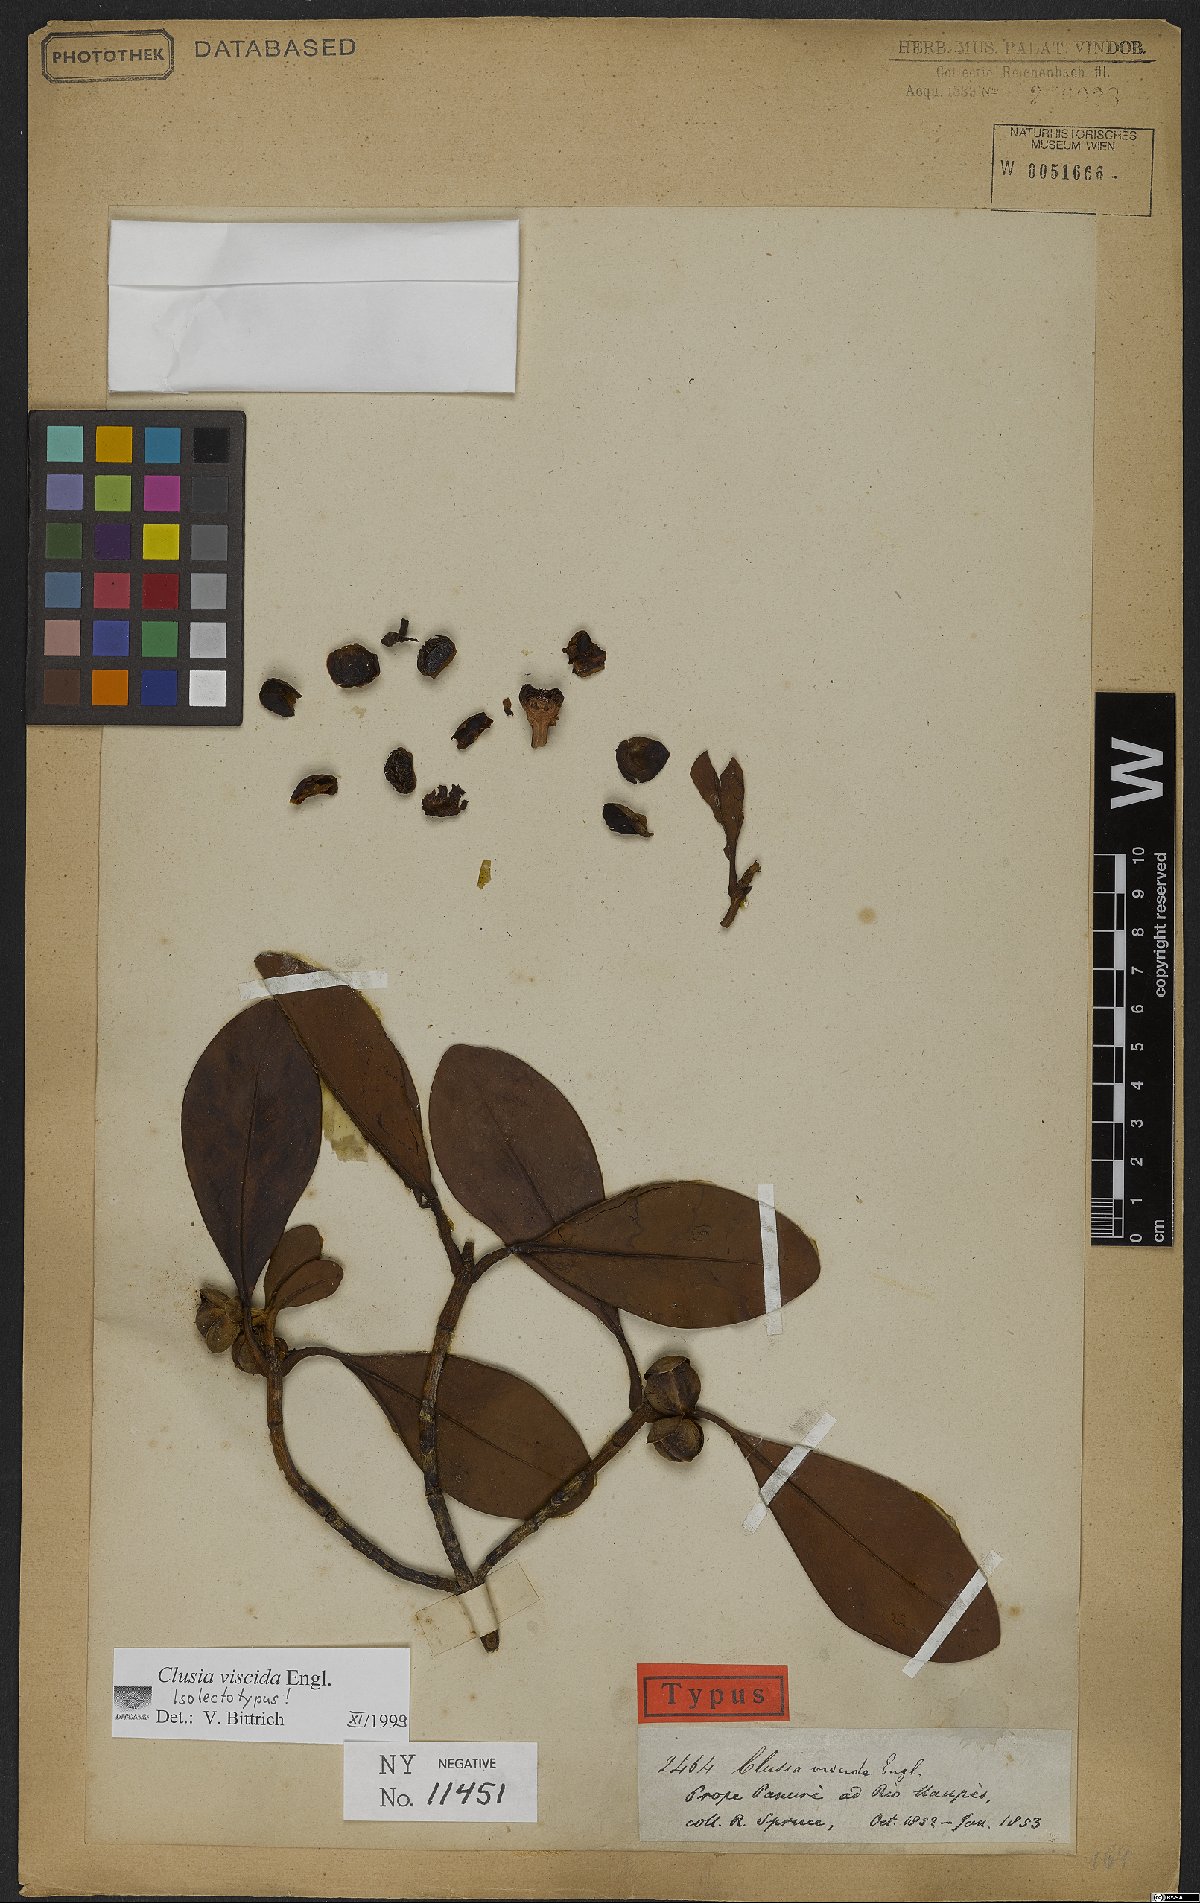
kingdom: Plantae
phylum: Tracheophyta
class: Magnoliopsida
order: Malpighiales
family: Clusiaceae
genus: Clusia
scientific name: Clusia viscida
